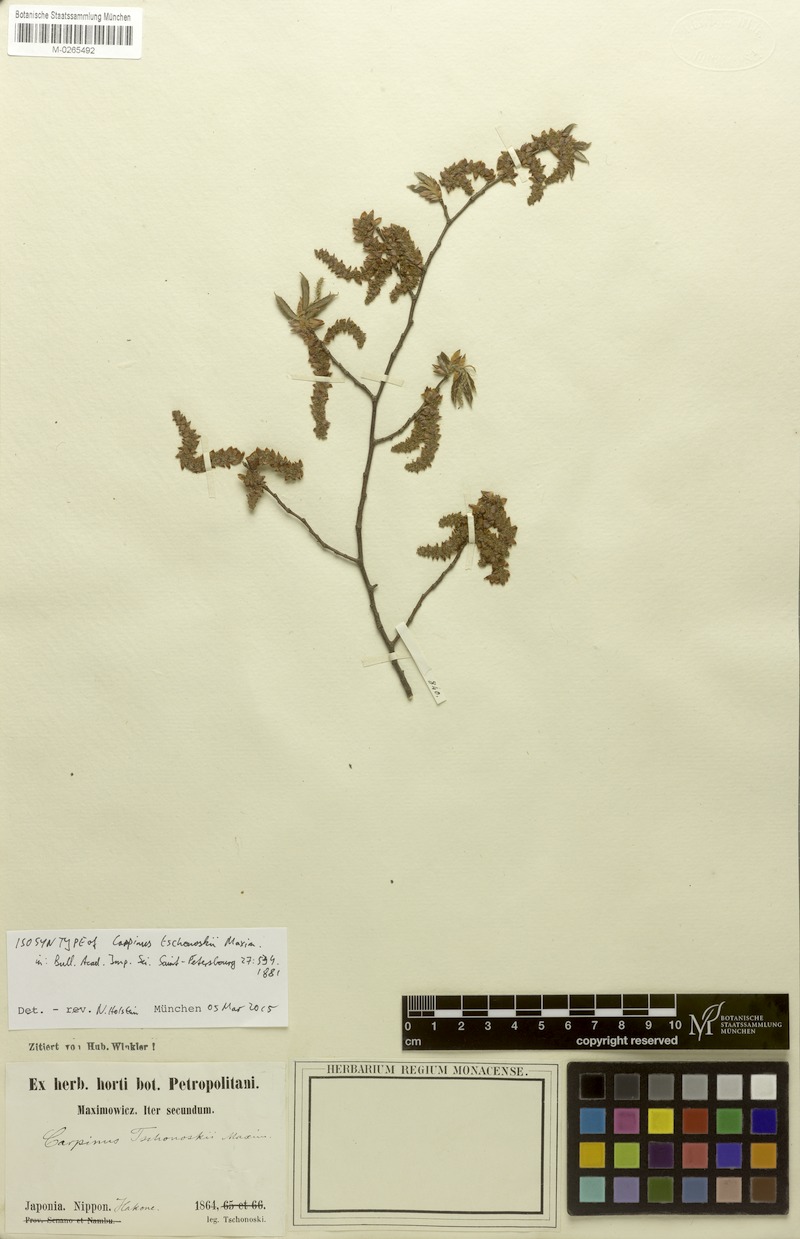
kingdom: Plantae
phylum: Tracheophyta
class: Magnoliopsida
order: Fagales
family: Betulaceae
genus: Carpinus
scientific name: Carpinus tschonoskii
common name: Asian hornbeam
